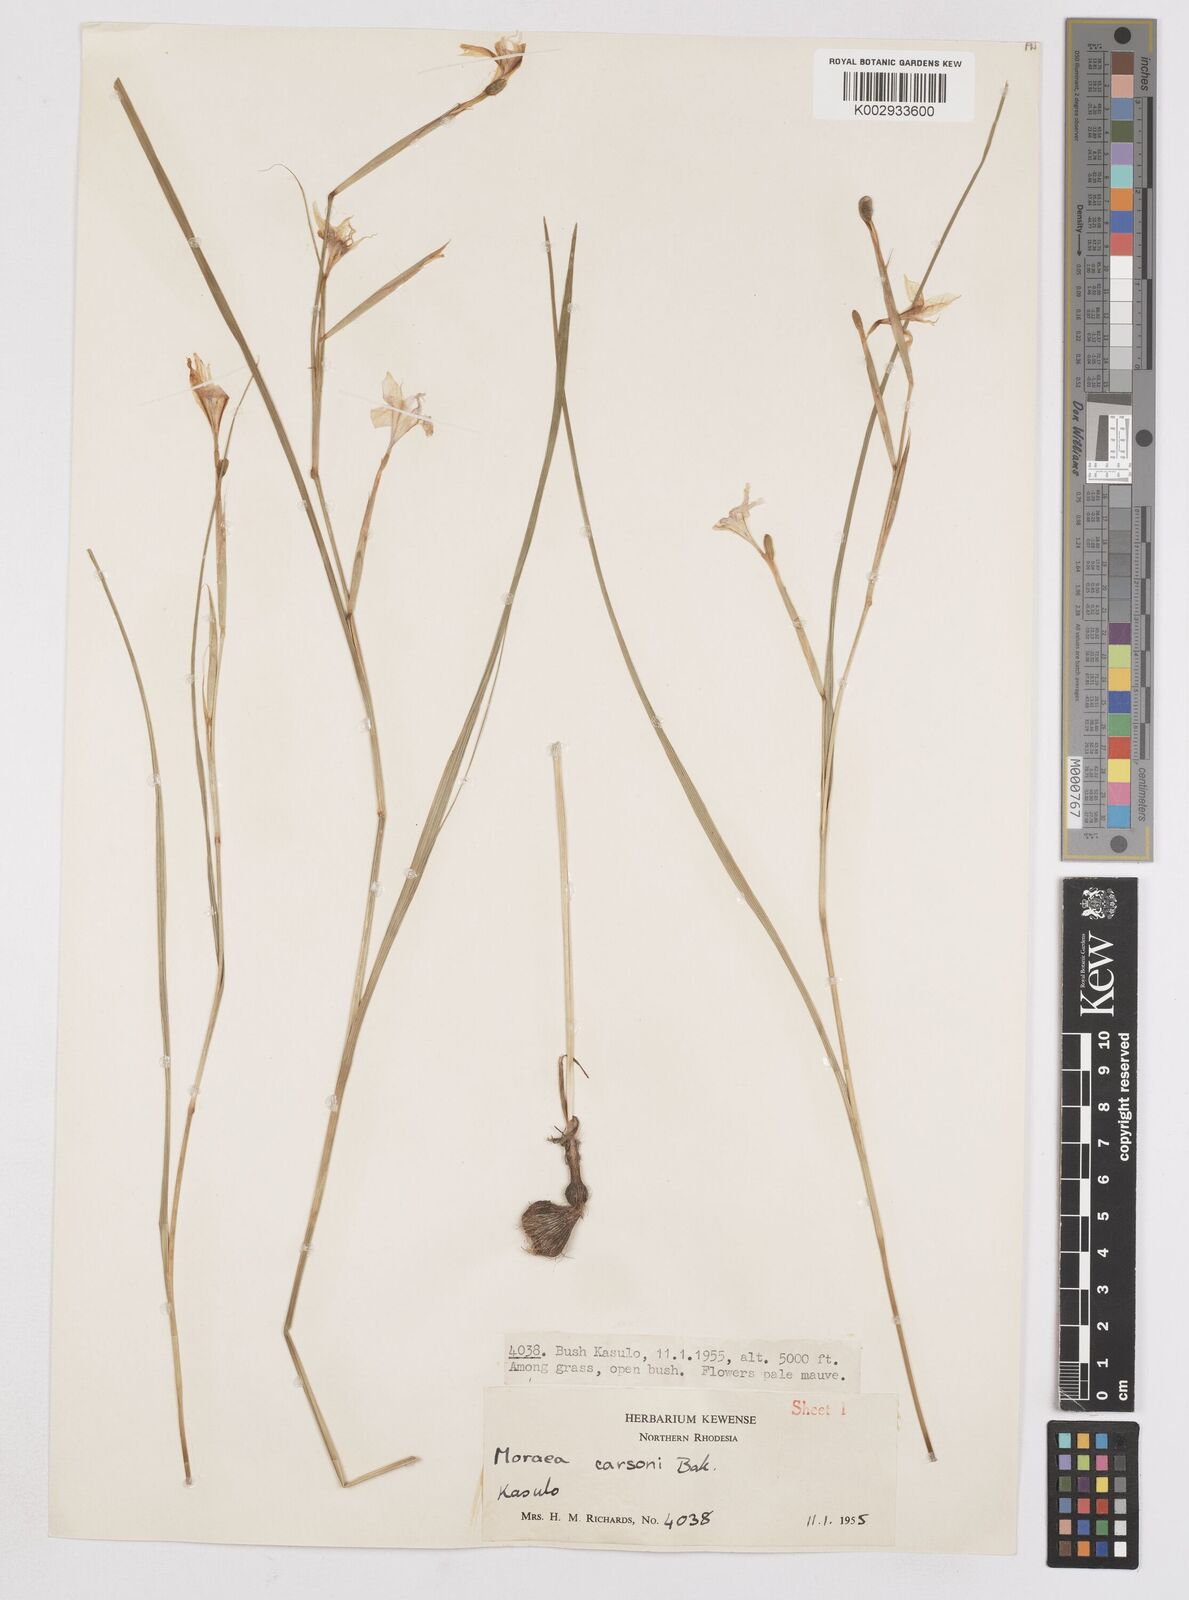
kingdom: Plantae
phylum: Tracheophyta
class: Liliopsida
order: Asparagales
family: Iridaceae
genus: Moraea
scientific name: Moraea carsonii
